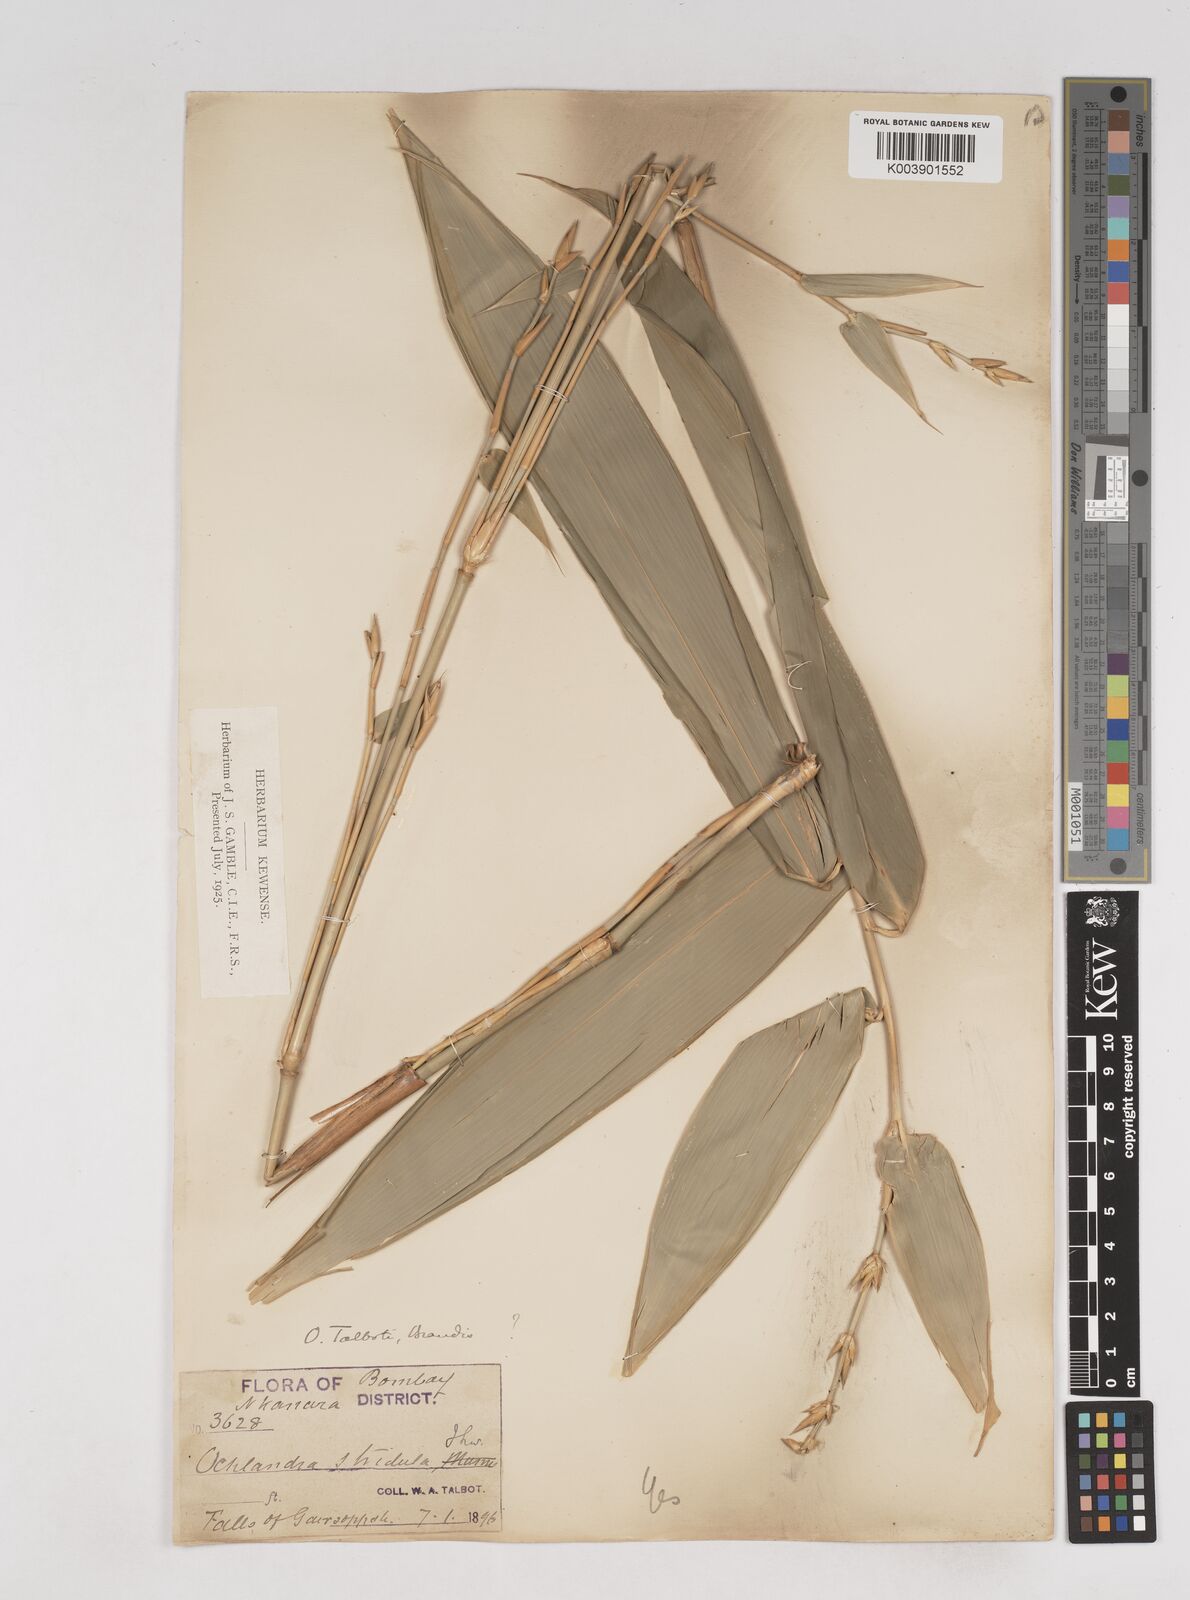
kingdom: Plantae
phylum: Tracheophyta
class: Liliopsida
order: Poales
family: Poaceae
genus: Ochlandra
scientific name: Ochlandra talbotii
